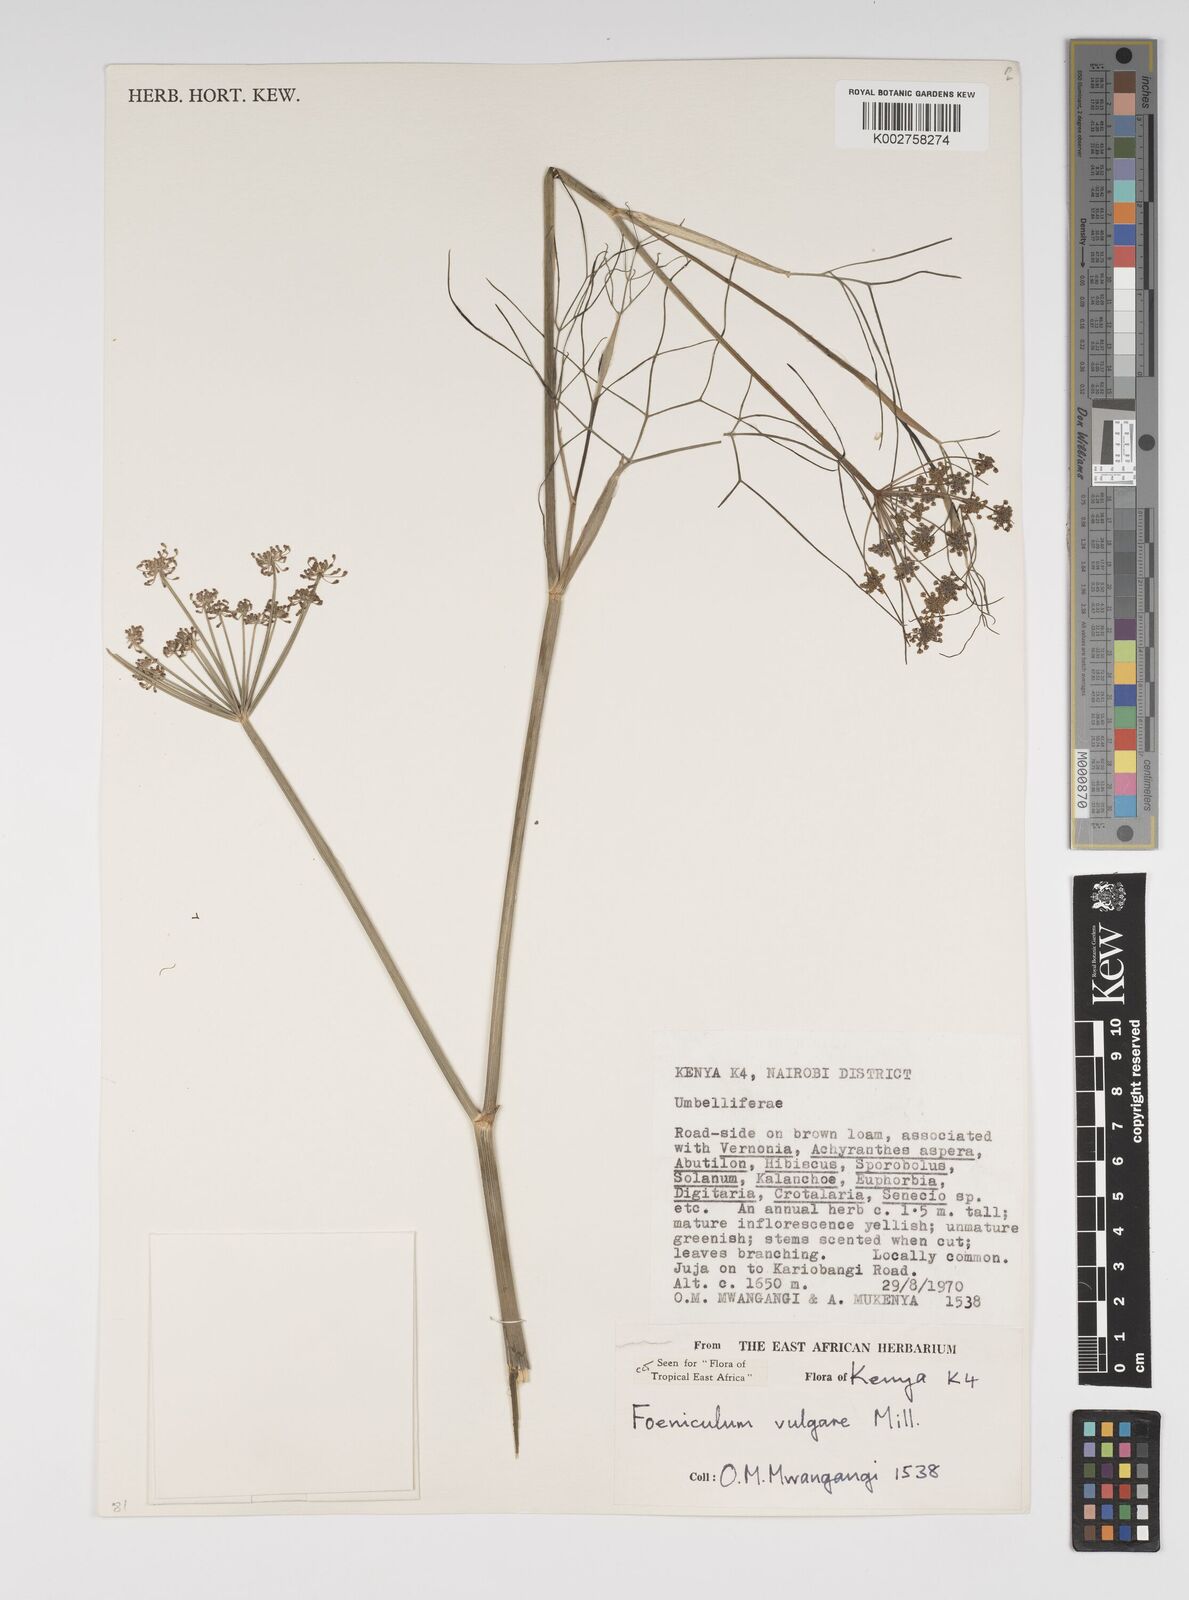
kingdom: Plantae
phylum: Tracheophyta
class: Magnoliopsida
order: Apiales
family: Apiaceae
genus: Foeniculum
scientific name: Foeniculum vulgare
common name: Fennel
